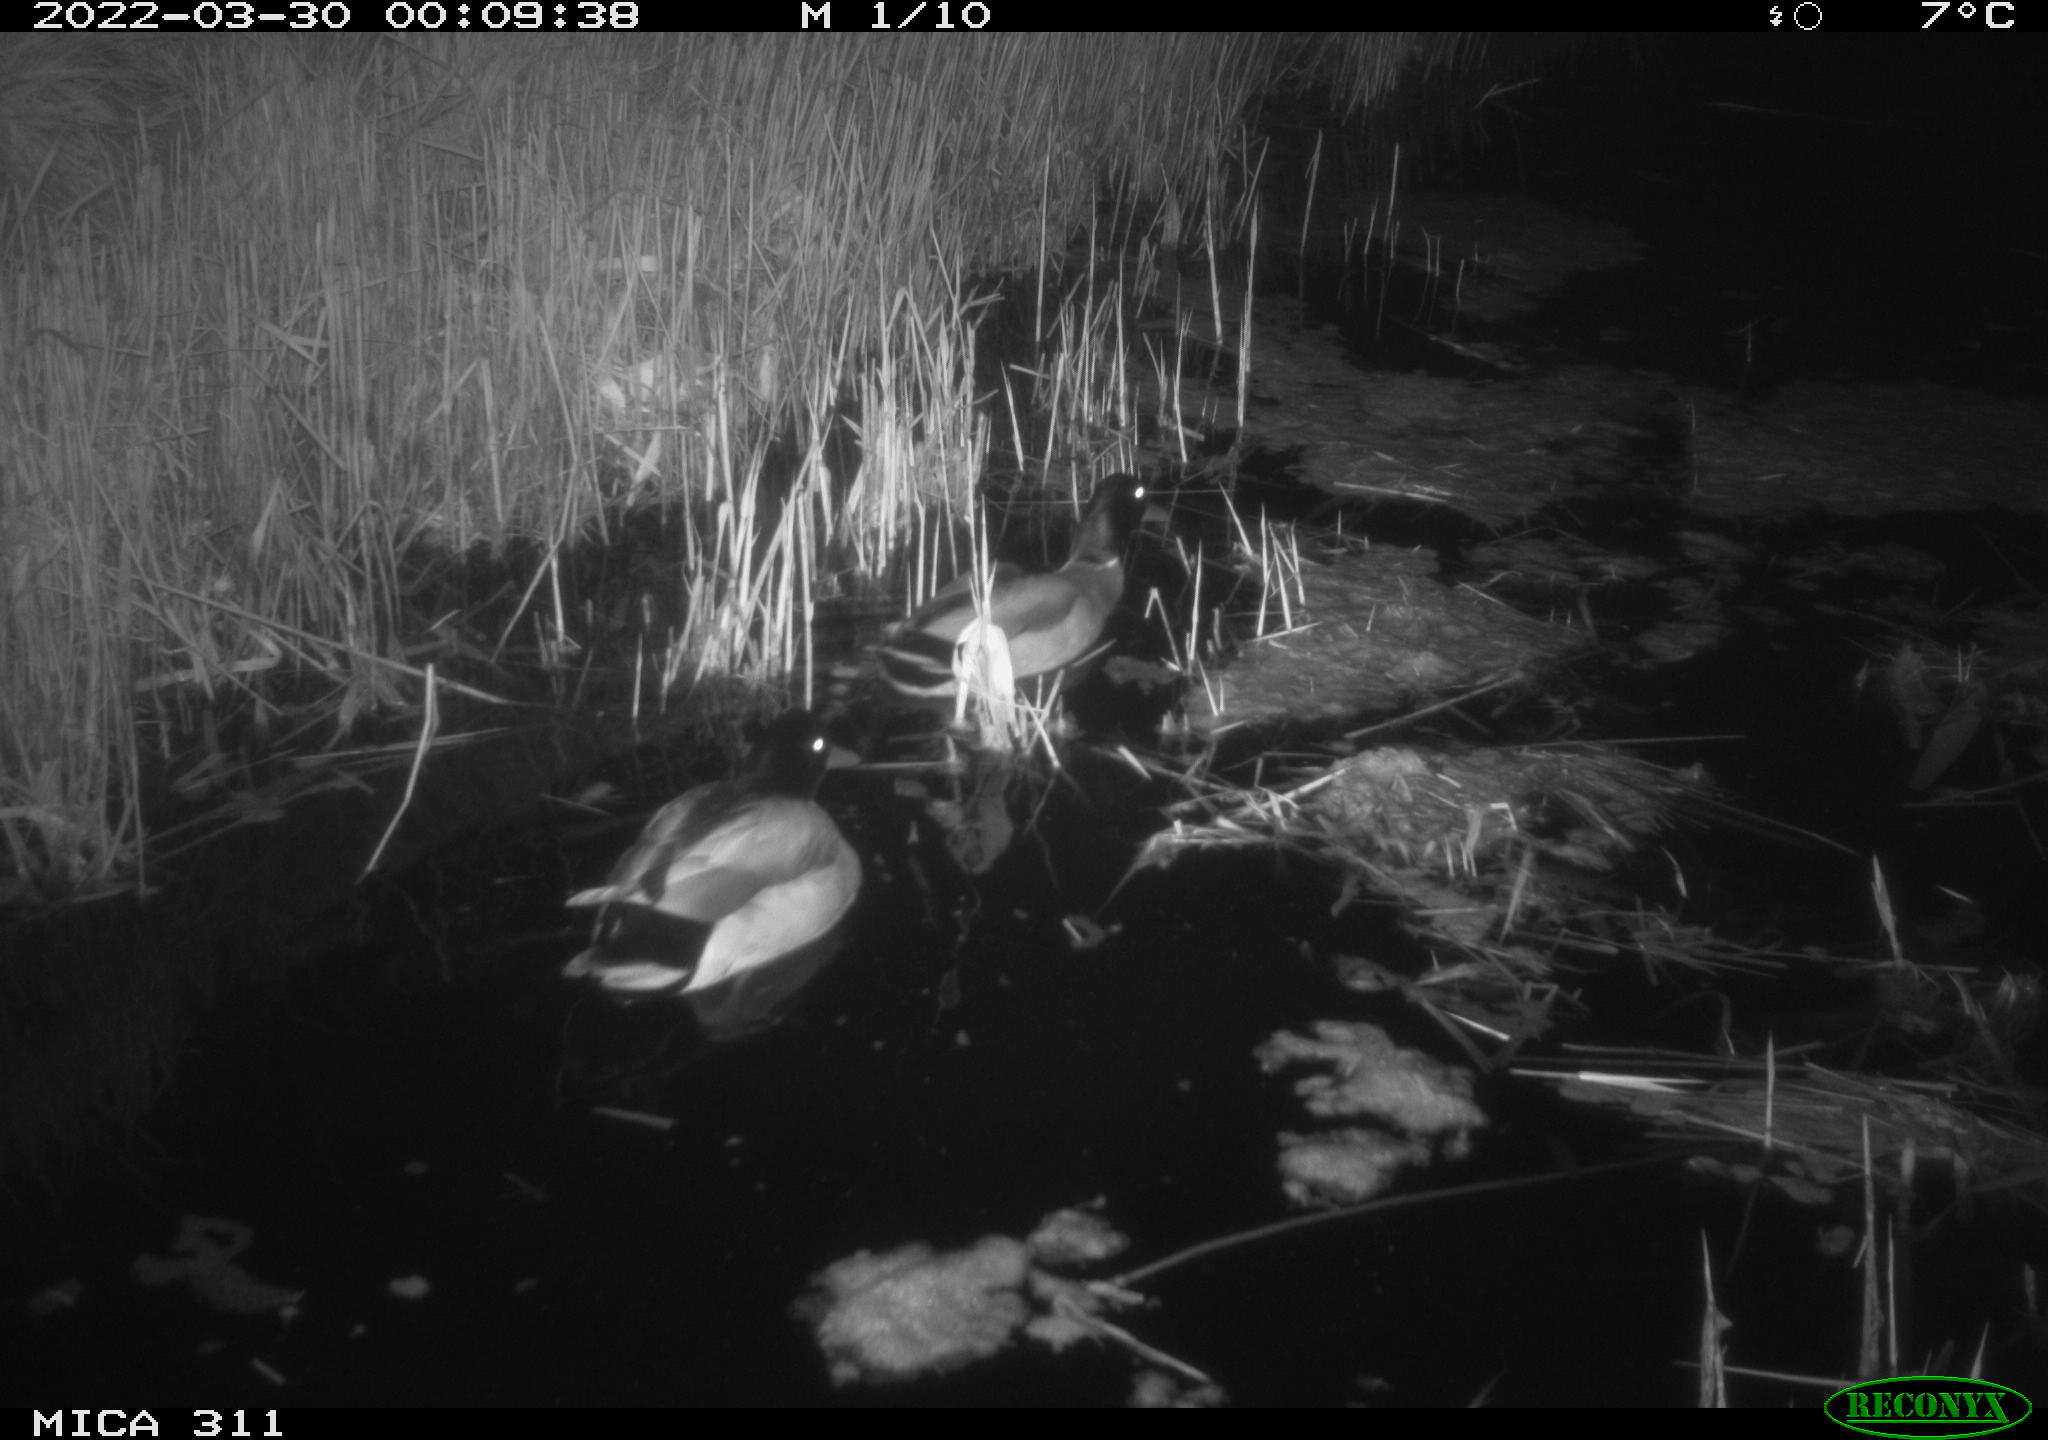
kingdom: Animalia
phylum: Chordata
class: Aves
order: Anseriformes
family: Anatidae
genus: Anas
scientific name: Anas platyrhynchos
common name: Mallard
